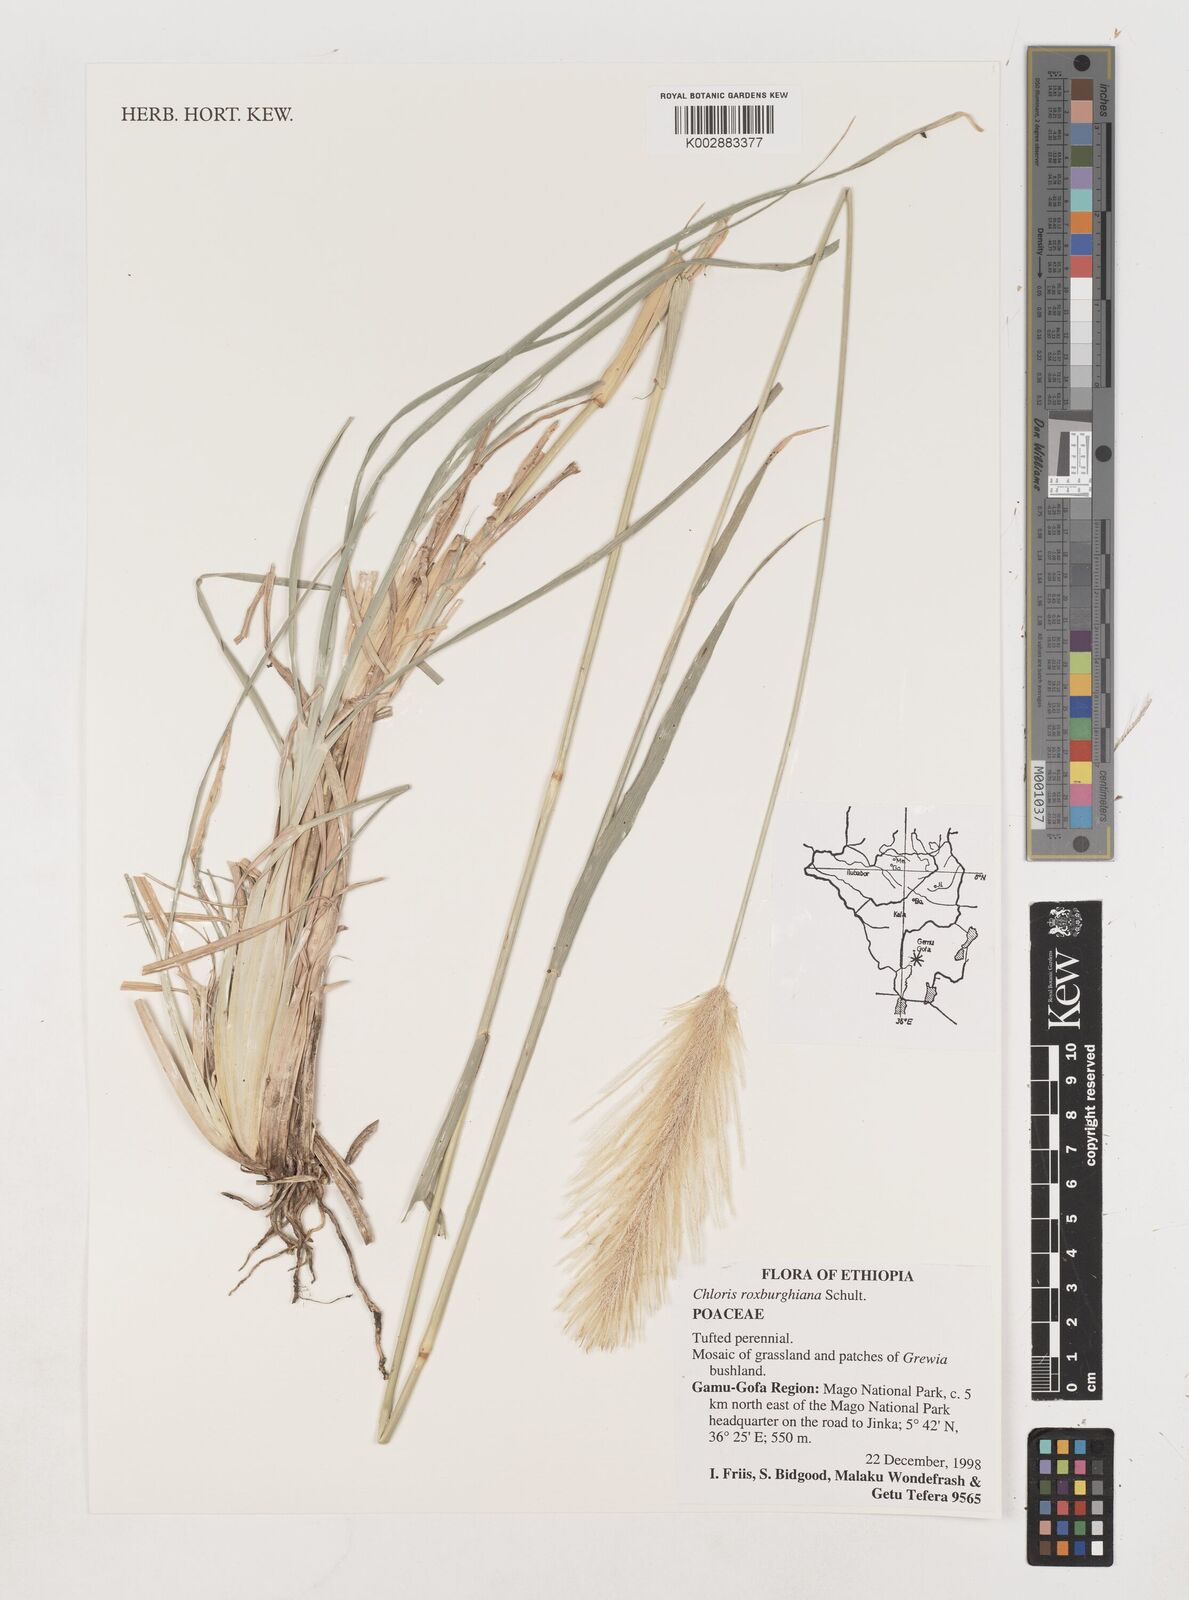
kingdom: Plantae
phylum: Tracheophyta
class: Liliopsida
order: Poales
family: Poaceae
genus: Tetrapogon
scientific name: Tetrapogon roxburghiana
